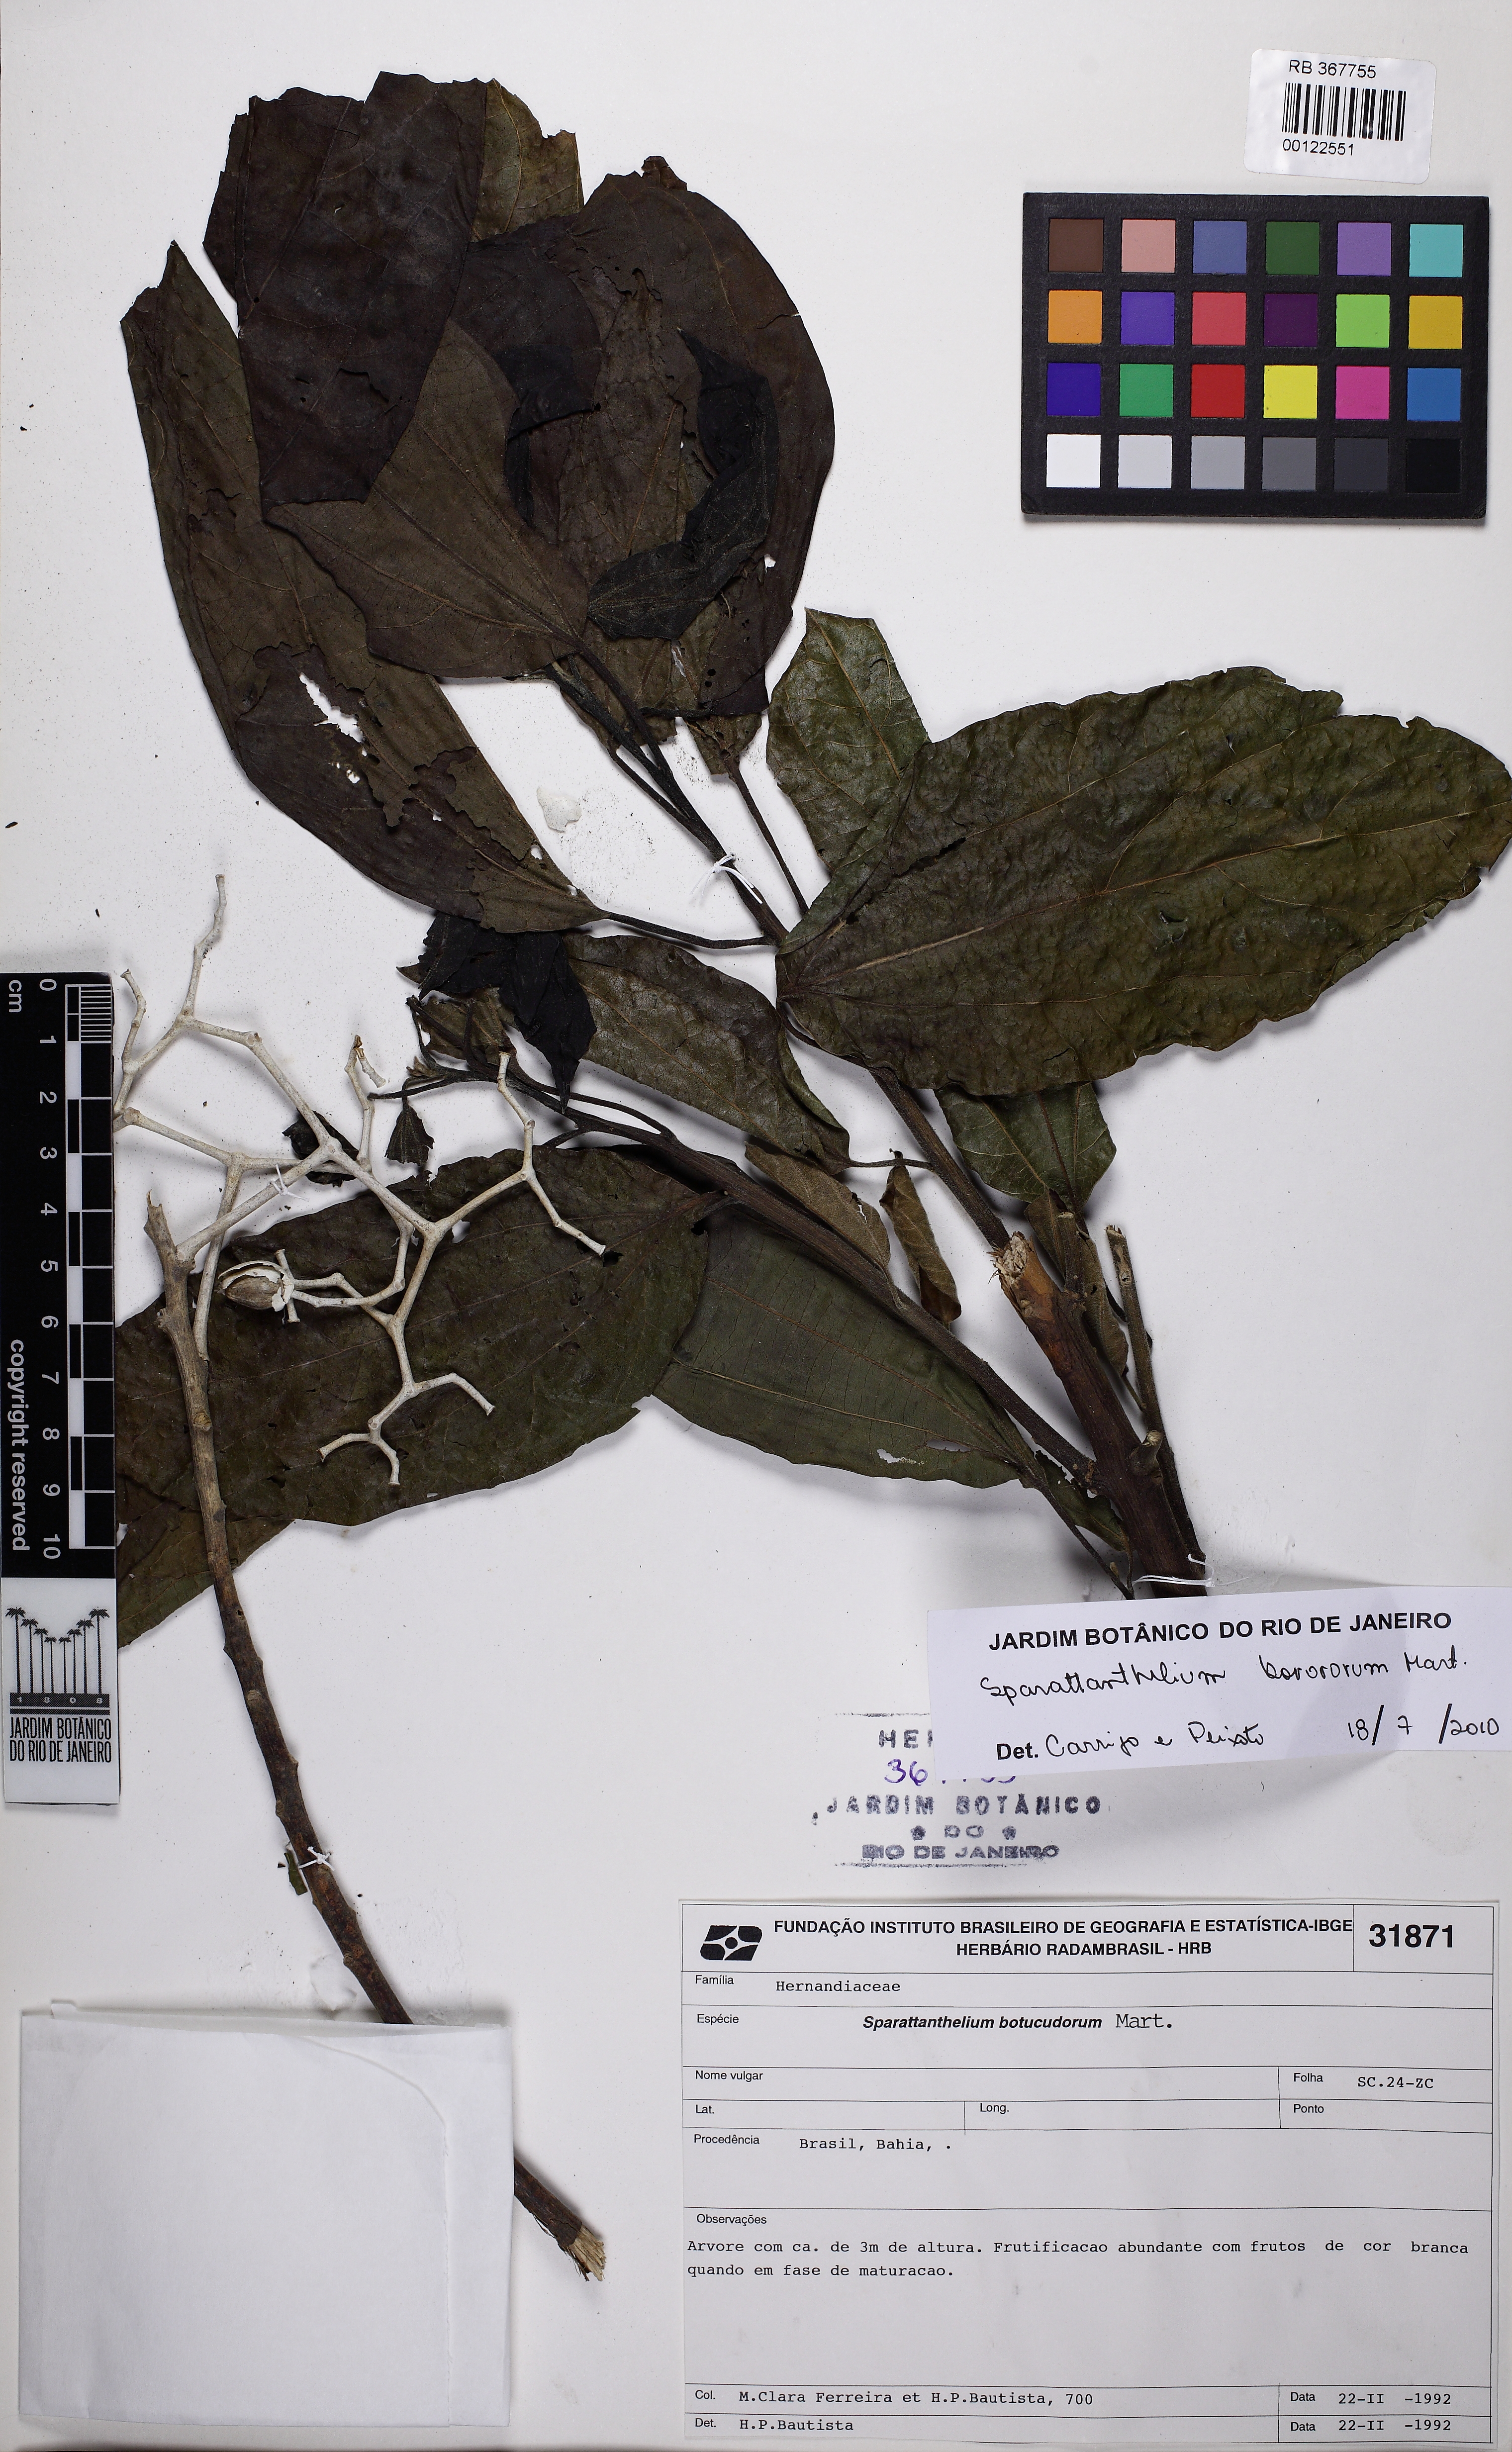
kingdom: Plantae
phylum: Tracheophyta
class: Magnoliopsida
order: Laurales
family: Hernandiaceae
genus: Sparattanthelium
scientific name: Sparattanthelium borororum
